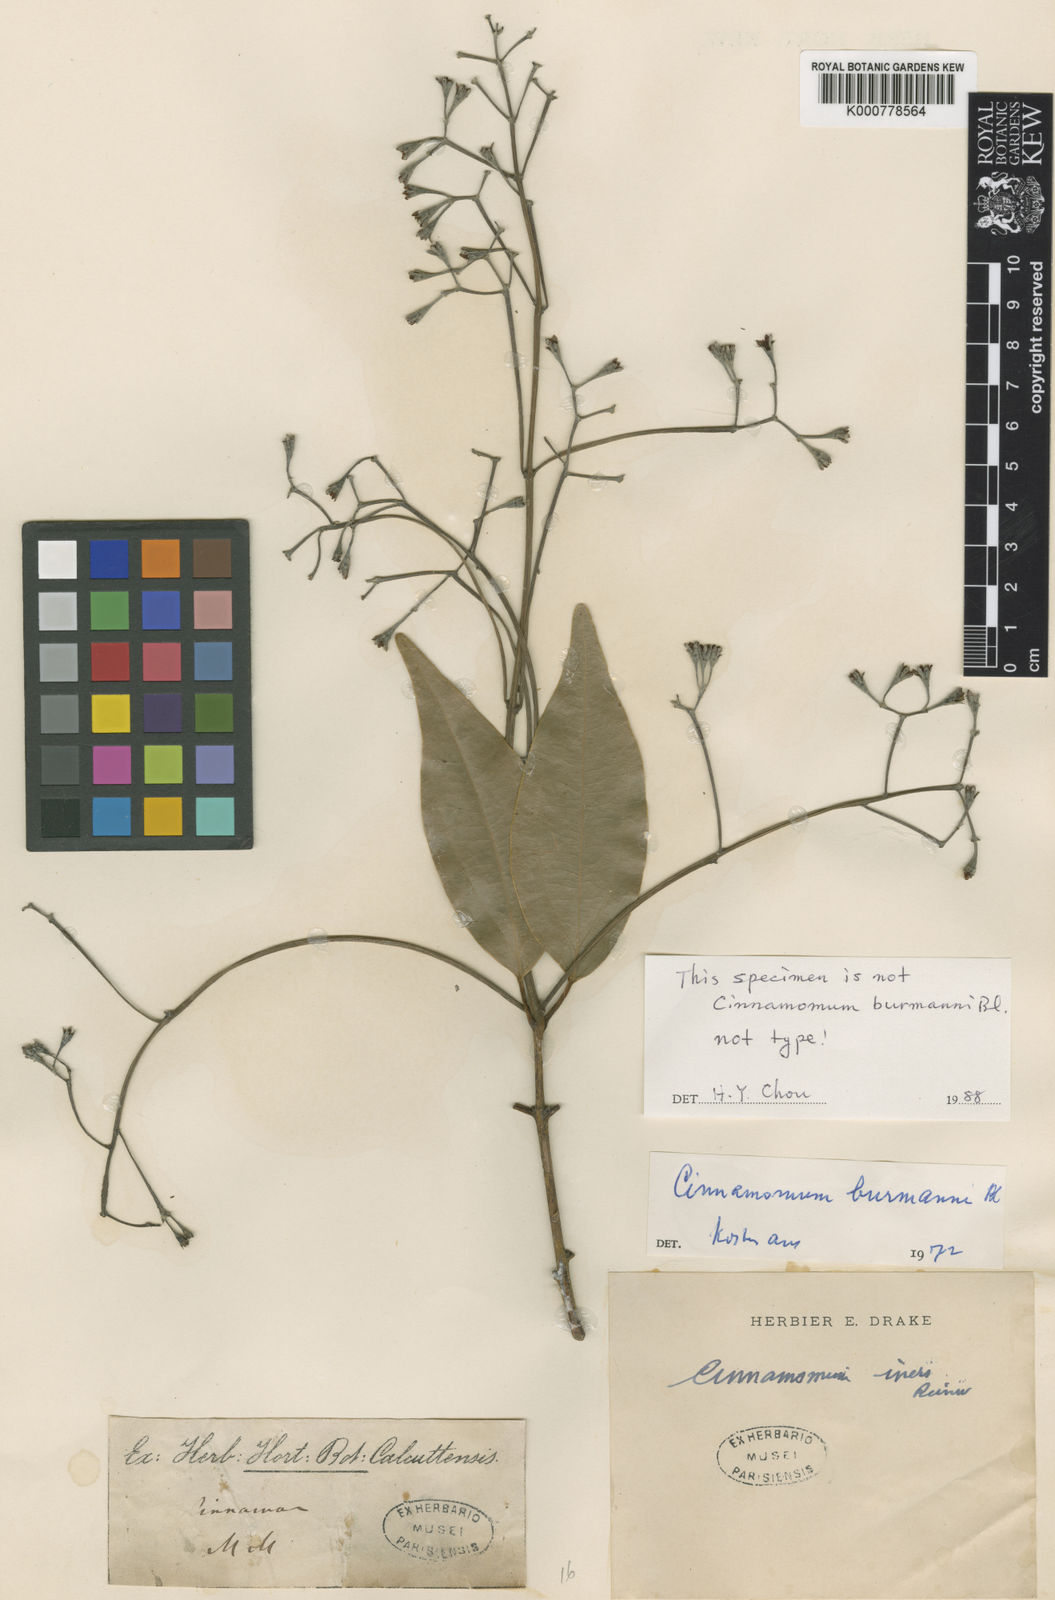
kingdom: Plantae
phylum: Tracheophyta
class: Magnoliopsida
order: Laurales
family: Lauraceae
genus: Cinnamomum
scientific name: Cinnamomum
